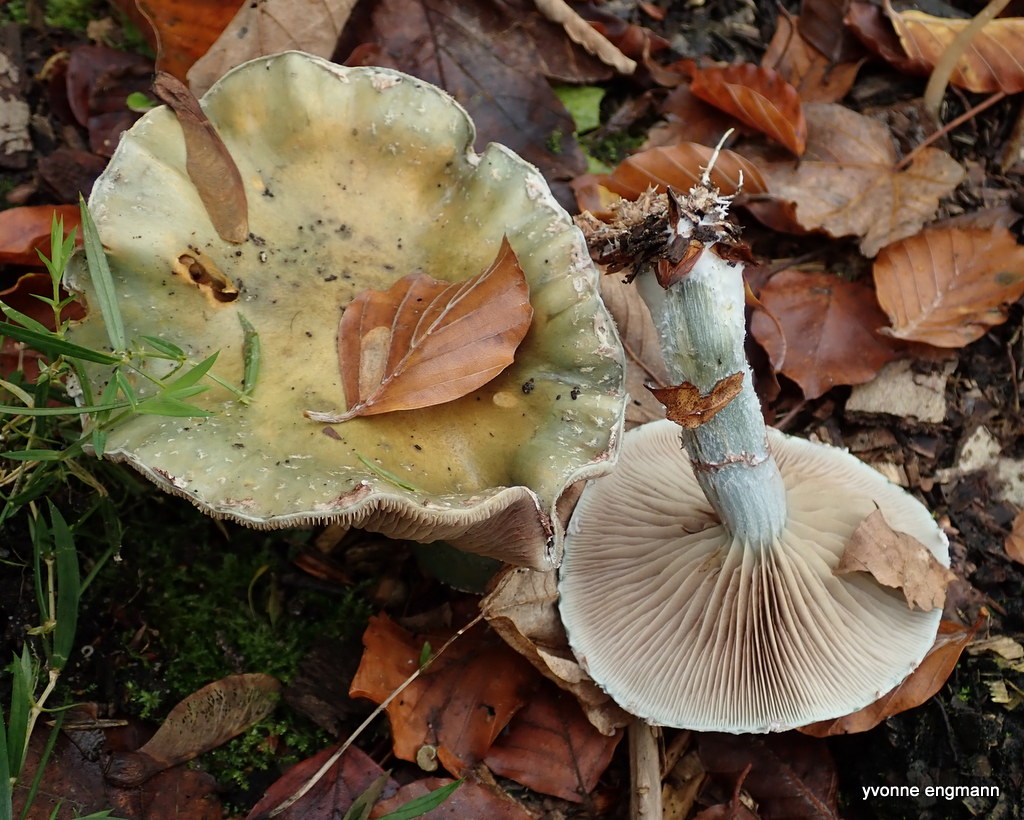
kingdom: Fungi
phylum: Basidiomycota
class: Agaricomycetes
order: Agaricales
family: Strophariaceae
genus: Stropharia
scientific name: Stropharia cyanea
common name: blågrøn bredblad
